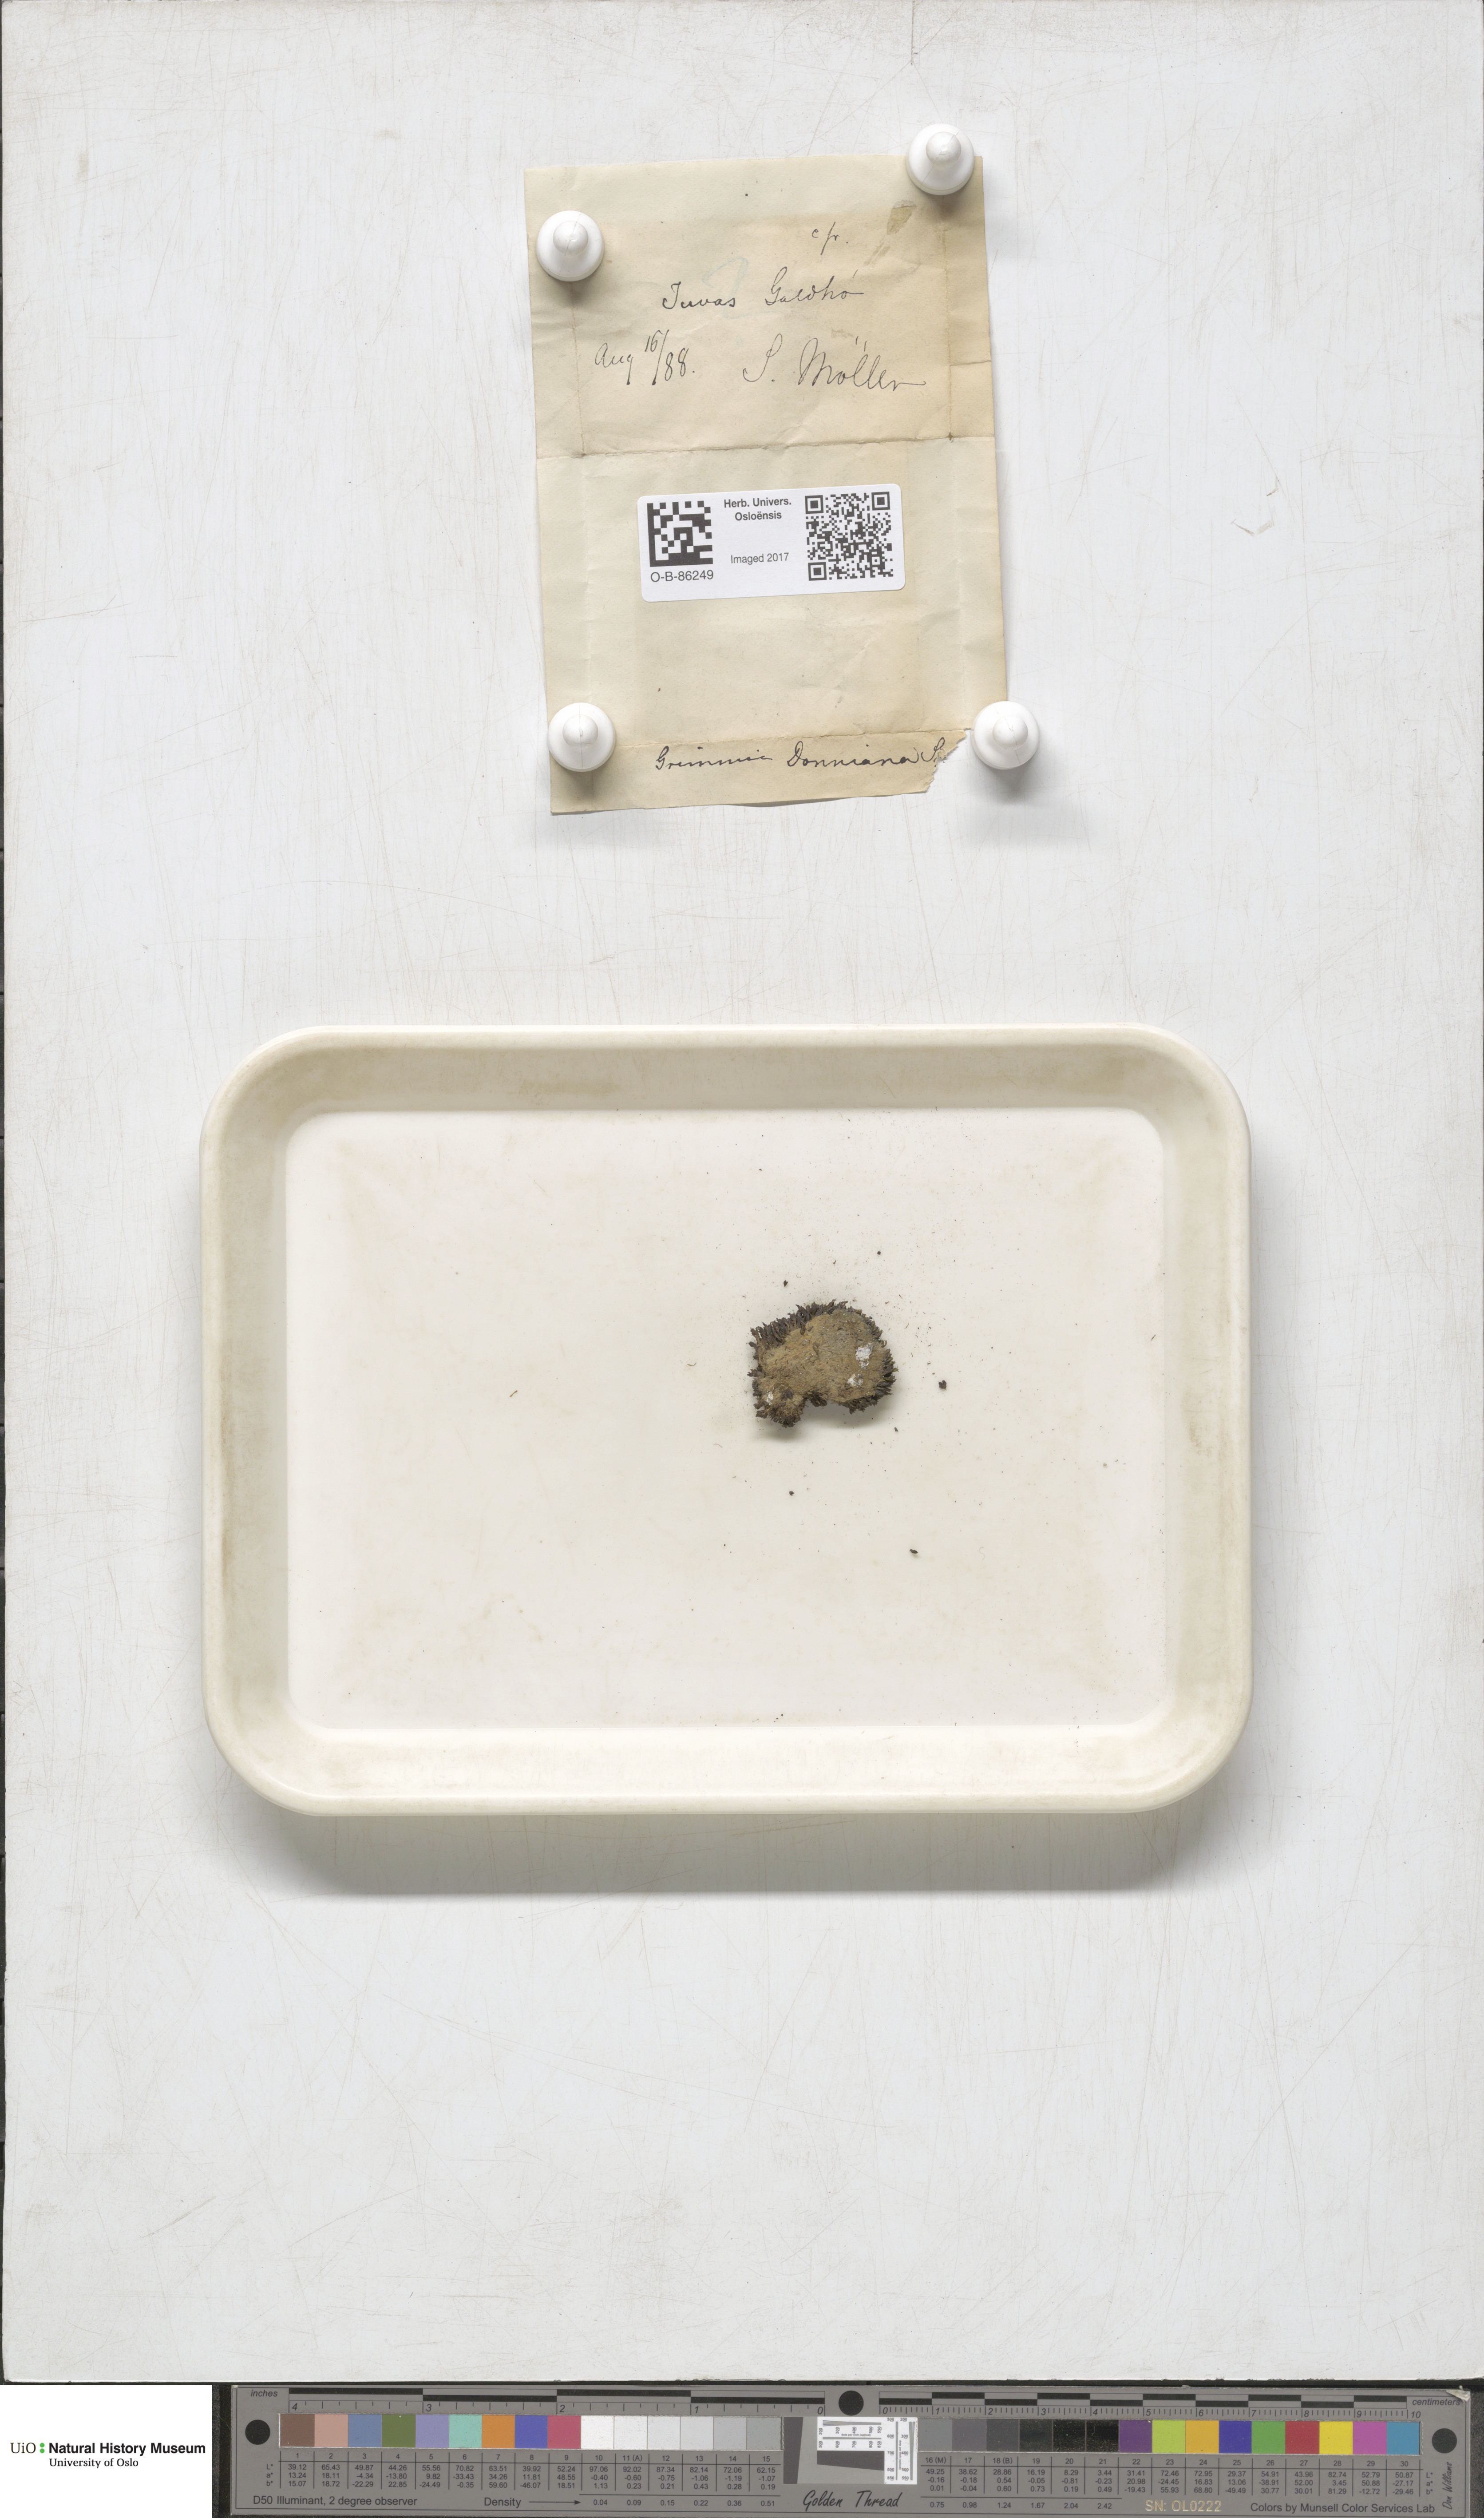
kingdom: Plantae
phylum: Bryophyta
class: Bryopsida
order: Grimmiales
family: Grimmiaceae
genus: Grimmia
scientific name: Grimmia donniana
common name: Donn's grimmia
